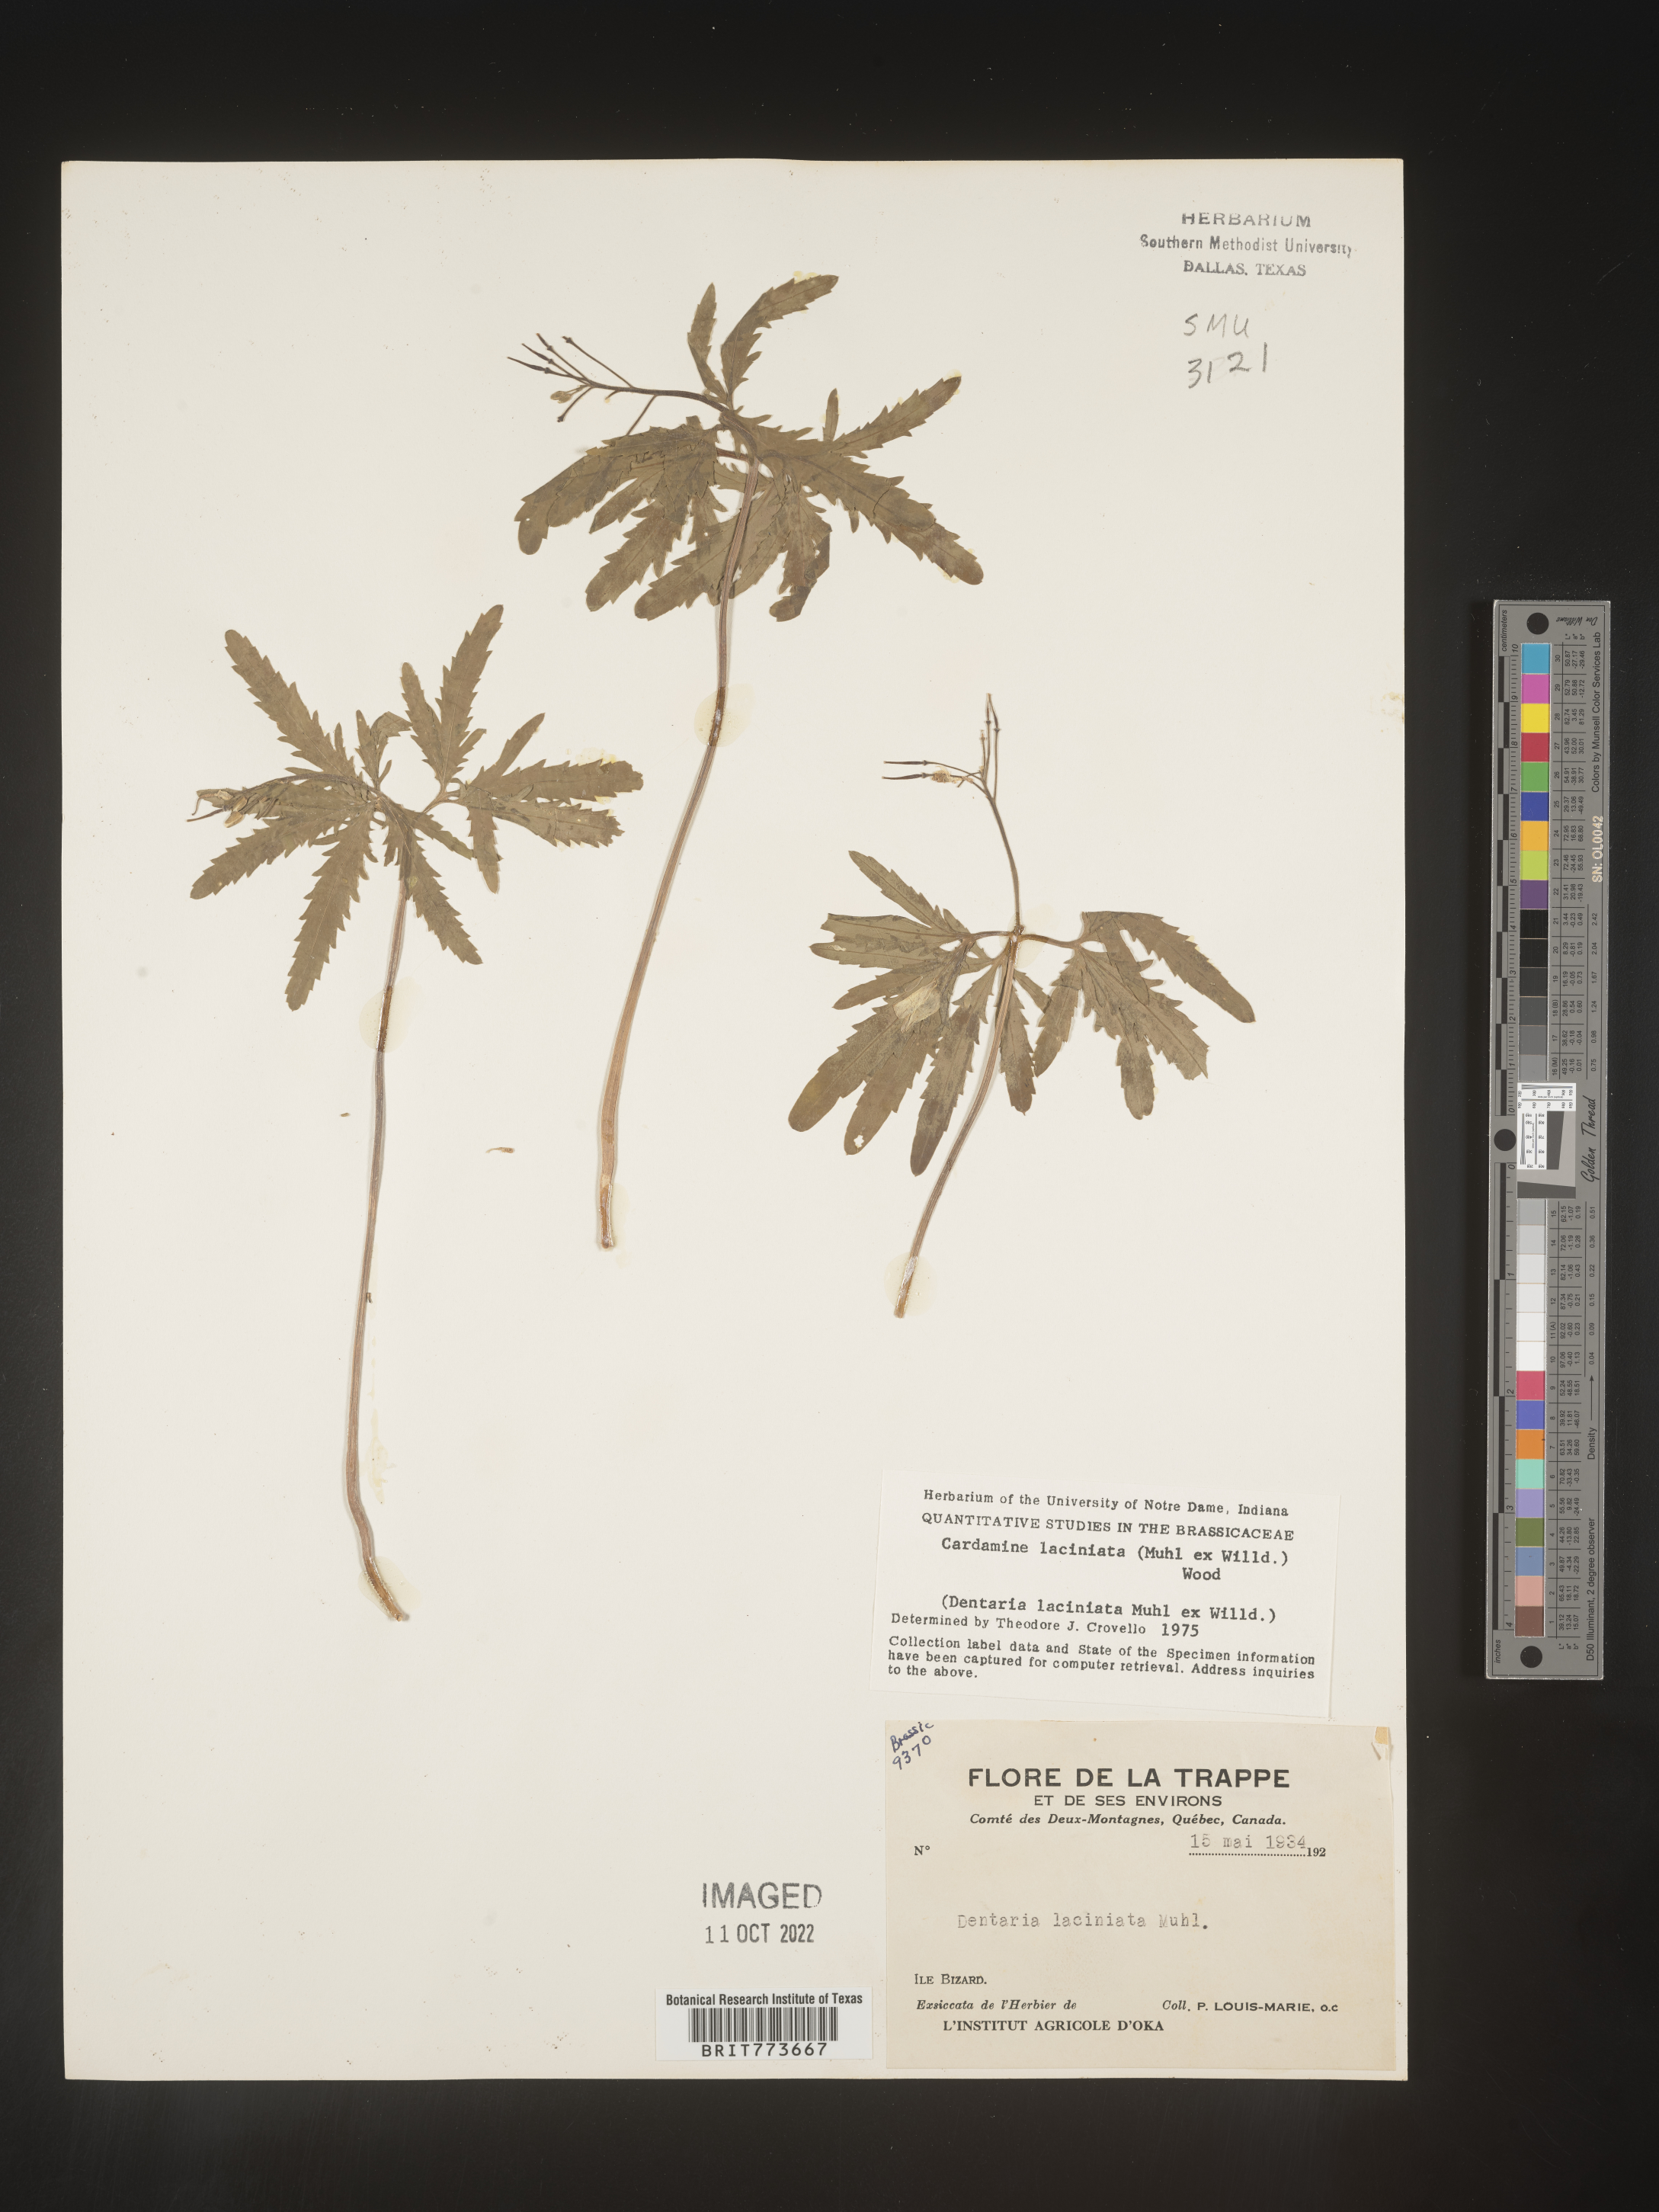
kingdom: Plantae
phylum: Tracheophyta
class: Magnoliopsida
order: Brassicales
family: Brassicaceae
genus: Rorippa
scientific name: Rorippa laciniata
